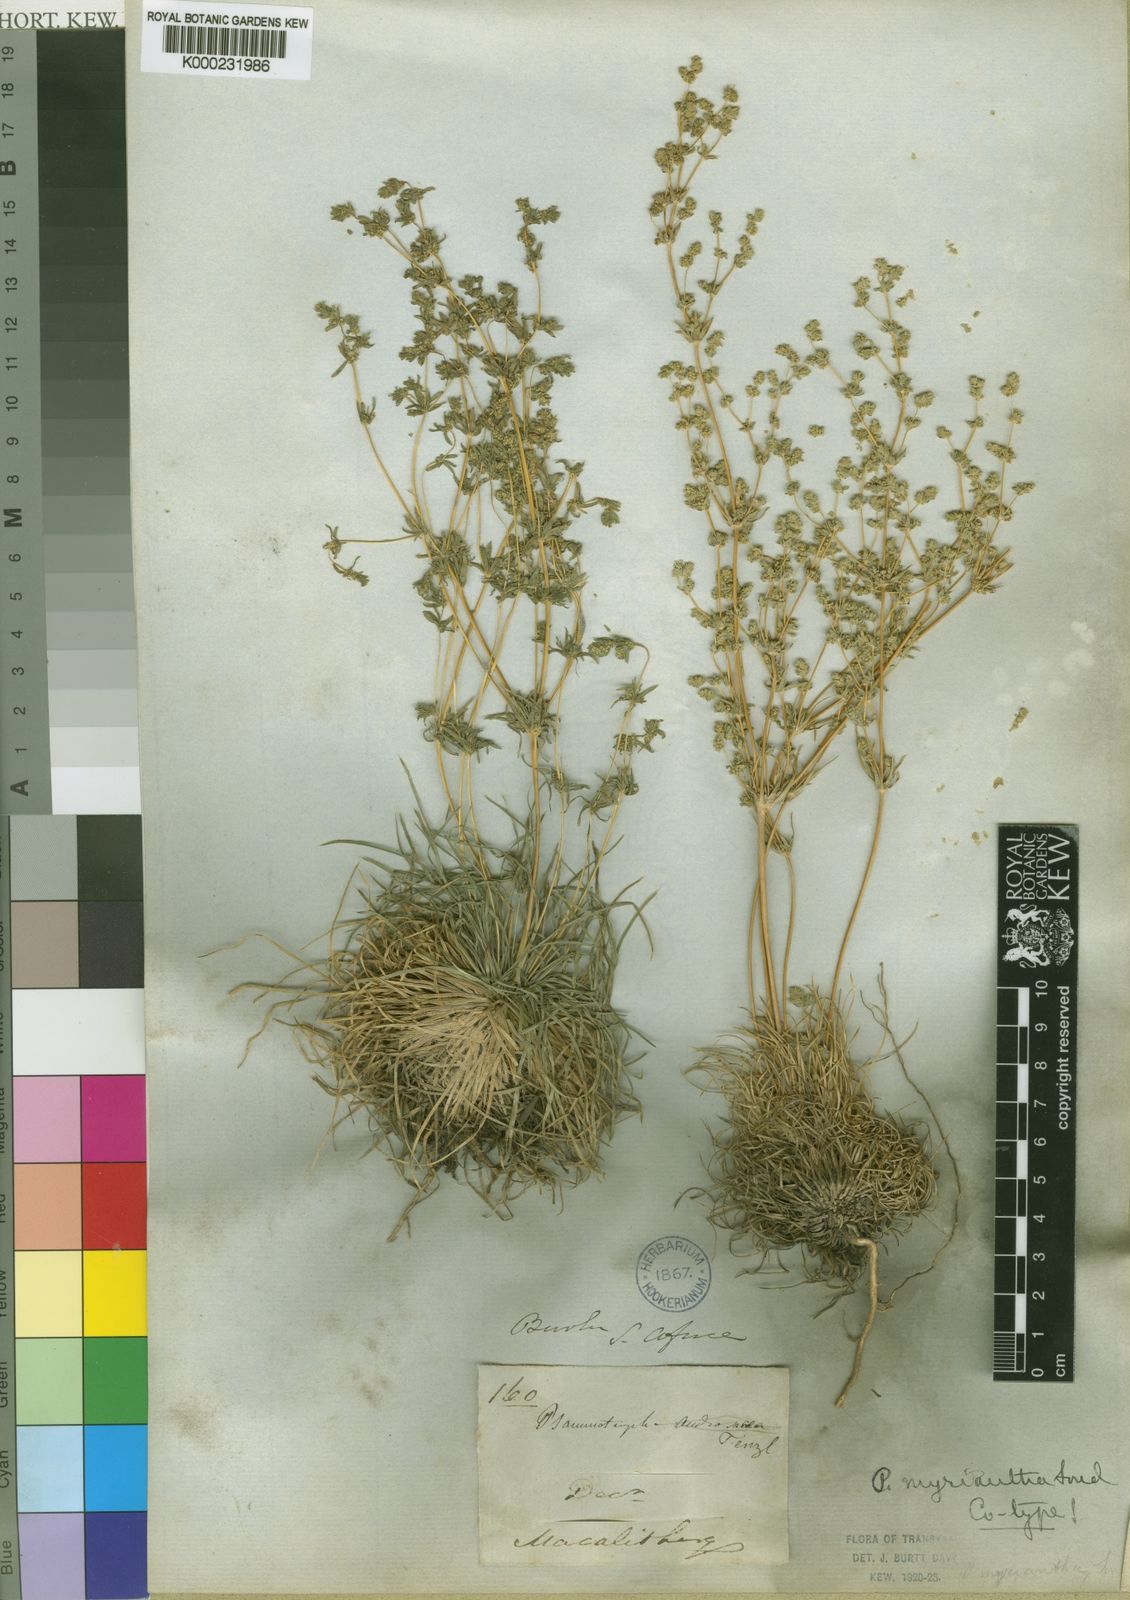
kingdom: Plantae
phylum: Tracheophyta
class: Magnoliopsida
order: Caryophyllales
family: Molluginaceae
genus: Psammotropha
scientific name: Psammotropha myriantha
